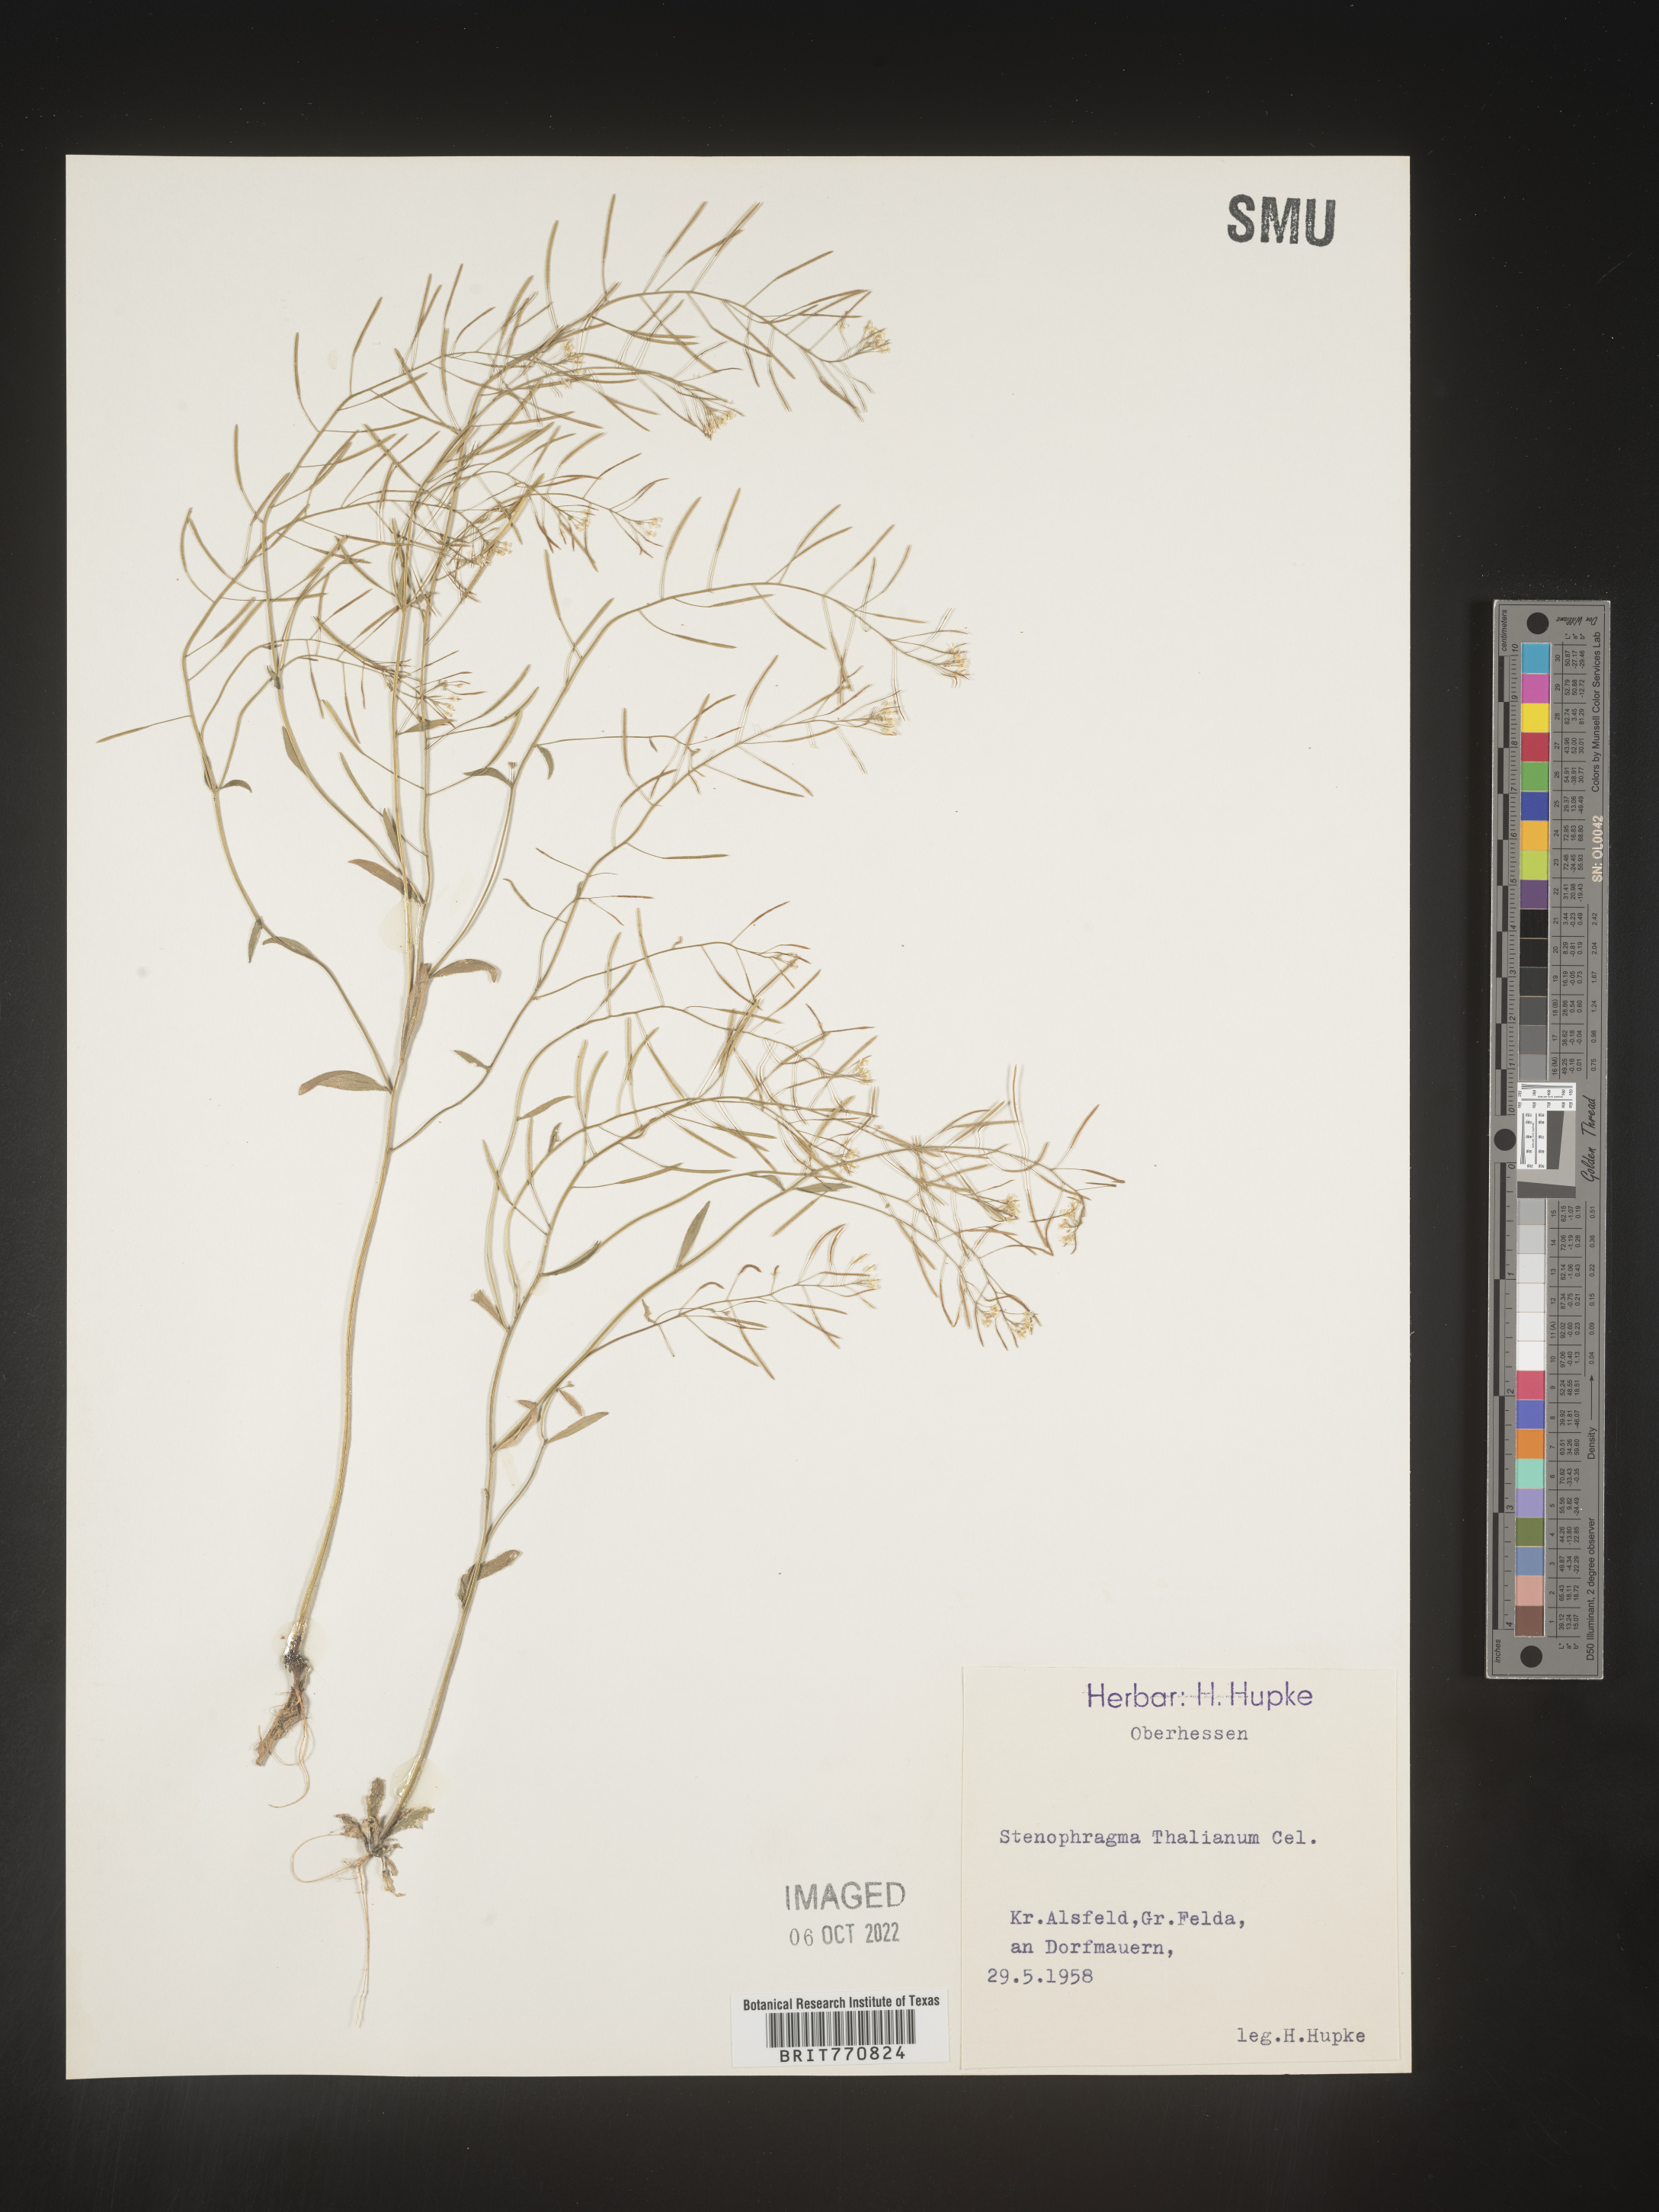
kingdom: Plantae
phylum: Tracheophyta
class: Magnoliopsida
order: Brassicales
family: Brassicaceae
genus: Arabidopsis
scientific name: Arabidopsis
